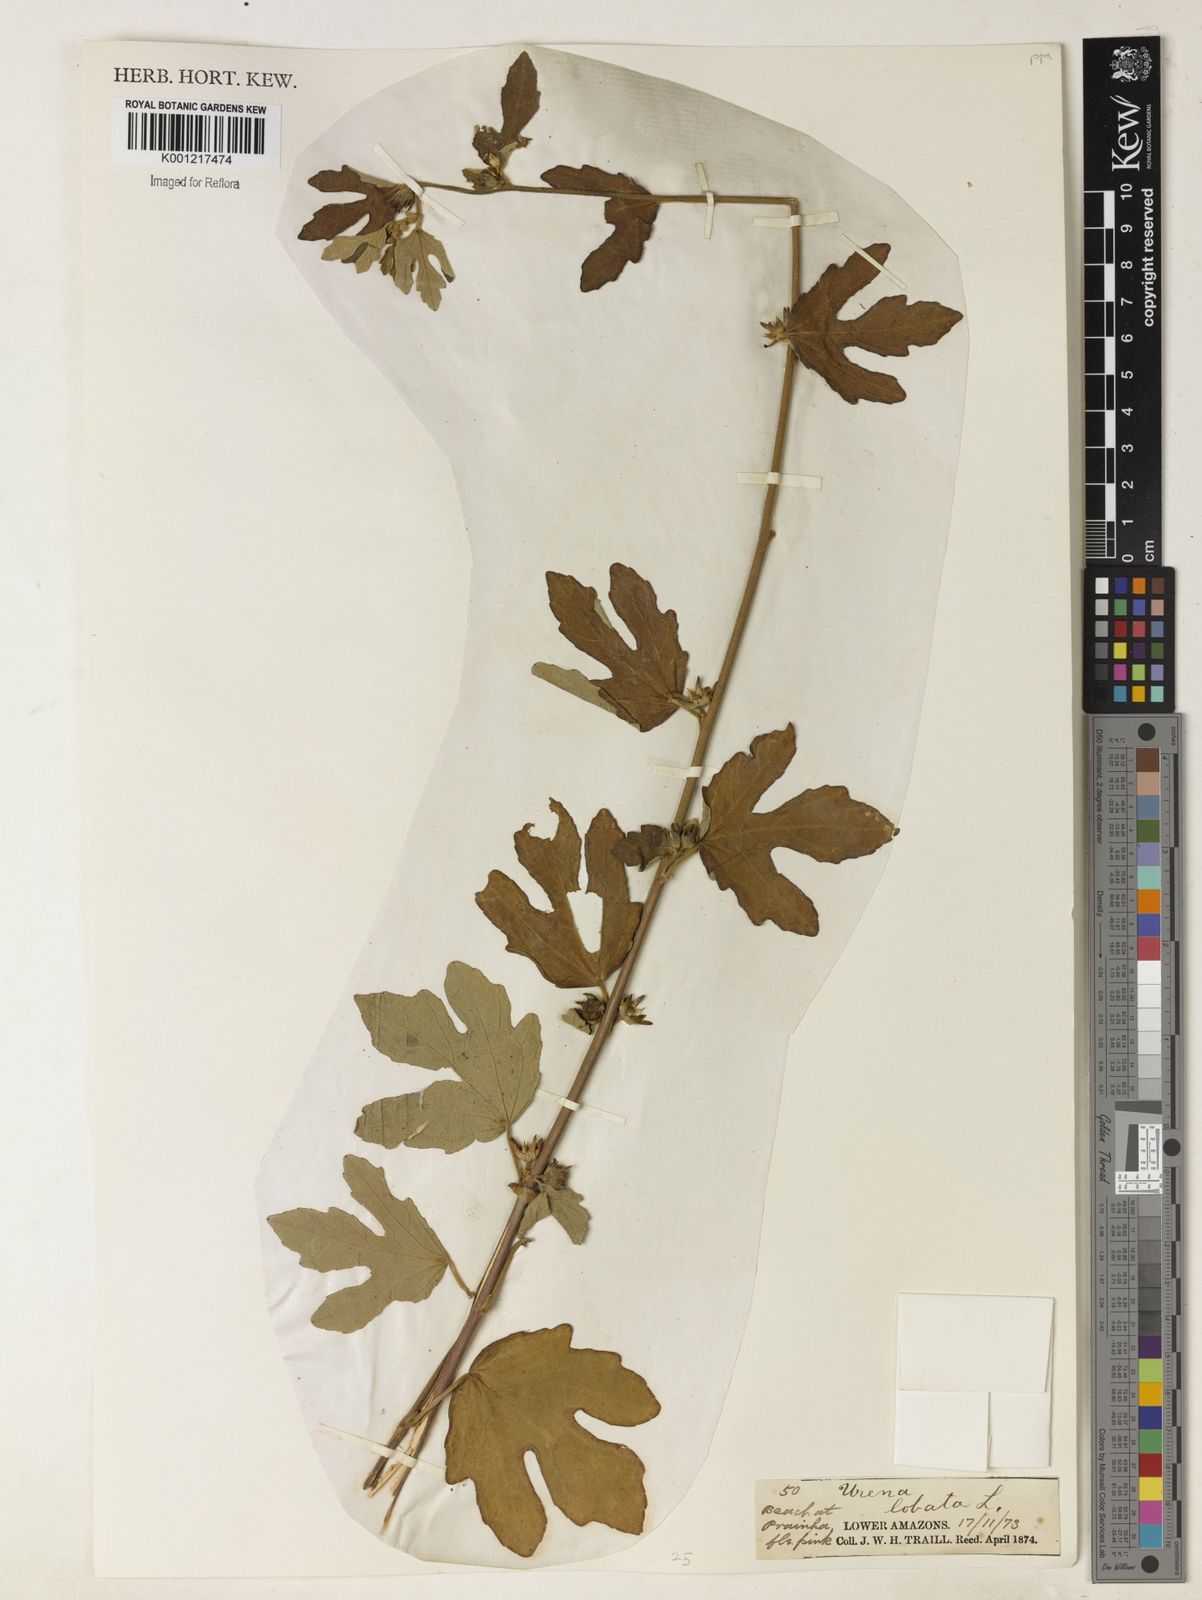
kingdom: Plantae
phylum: Tracheophyta
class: Magnoliopsida
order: Malvales
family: Malvaceae
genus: Urena
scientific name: Urena lobata
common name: Caesarweed
